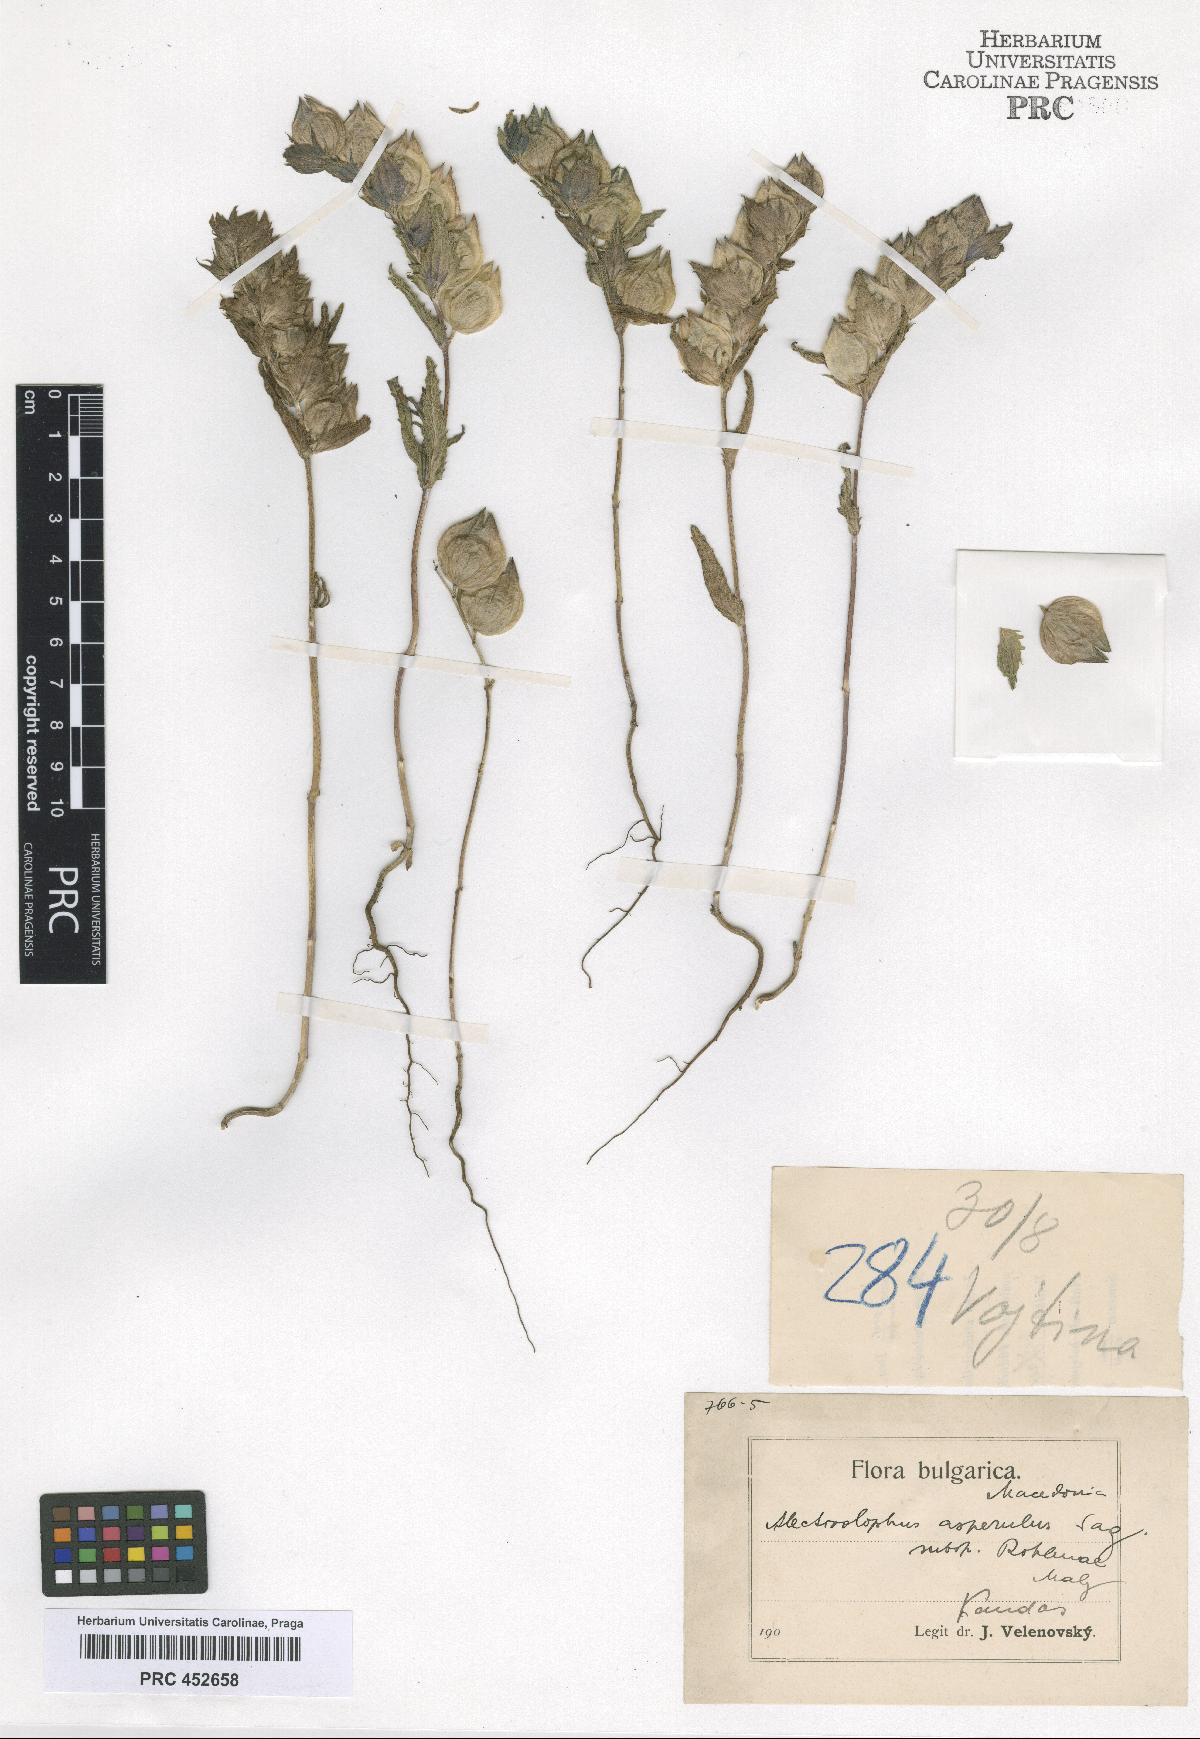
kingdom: Plantae
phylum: Tracheophyta
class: Magnoliopsida
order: Lamiales
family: Scrophulariaceae
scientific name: Scrophulariaceae
